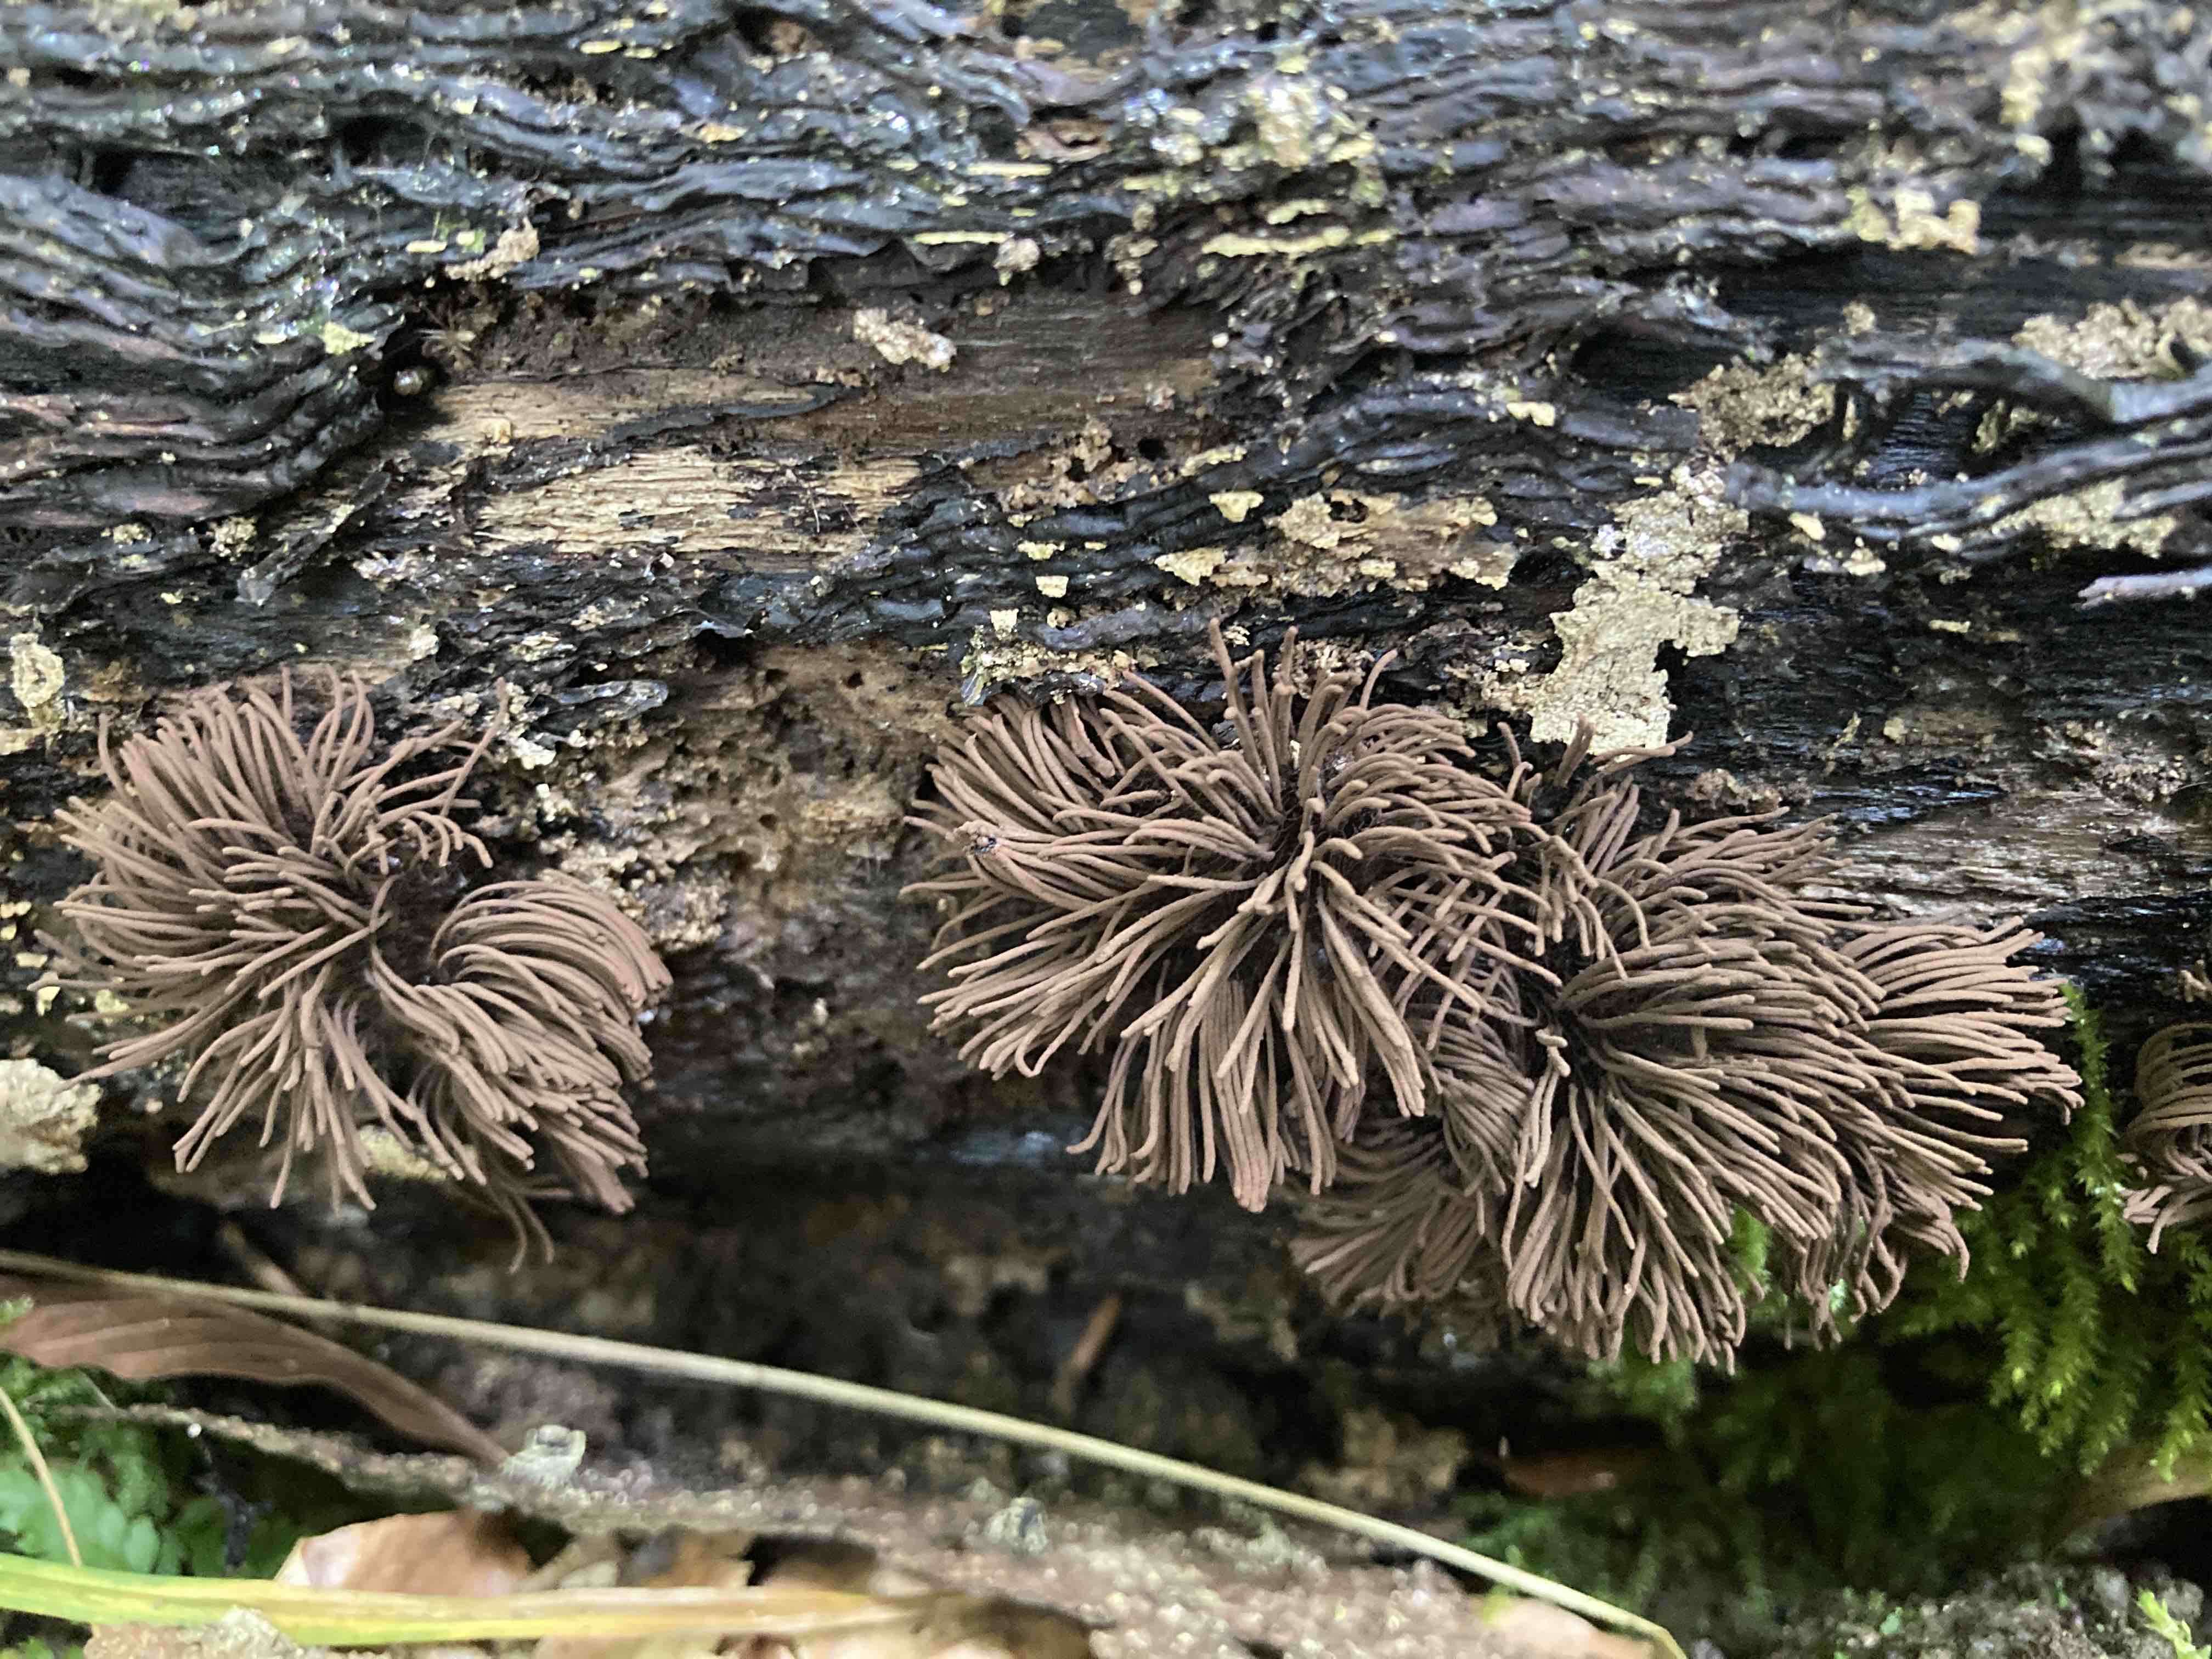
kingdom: Protozoa
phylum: Mycetozoa
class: Myxomycetes
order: Stemonitidales
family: Stemonitidaceae
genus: Stemonitis
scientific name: Stemonitis fusca
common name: sodbrun støvkølle
